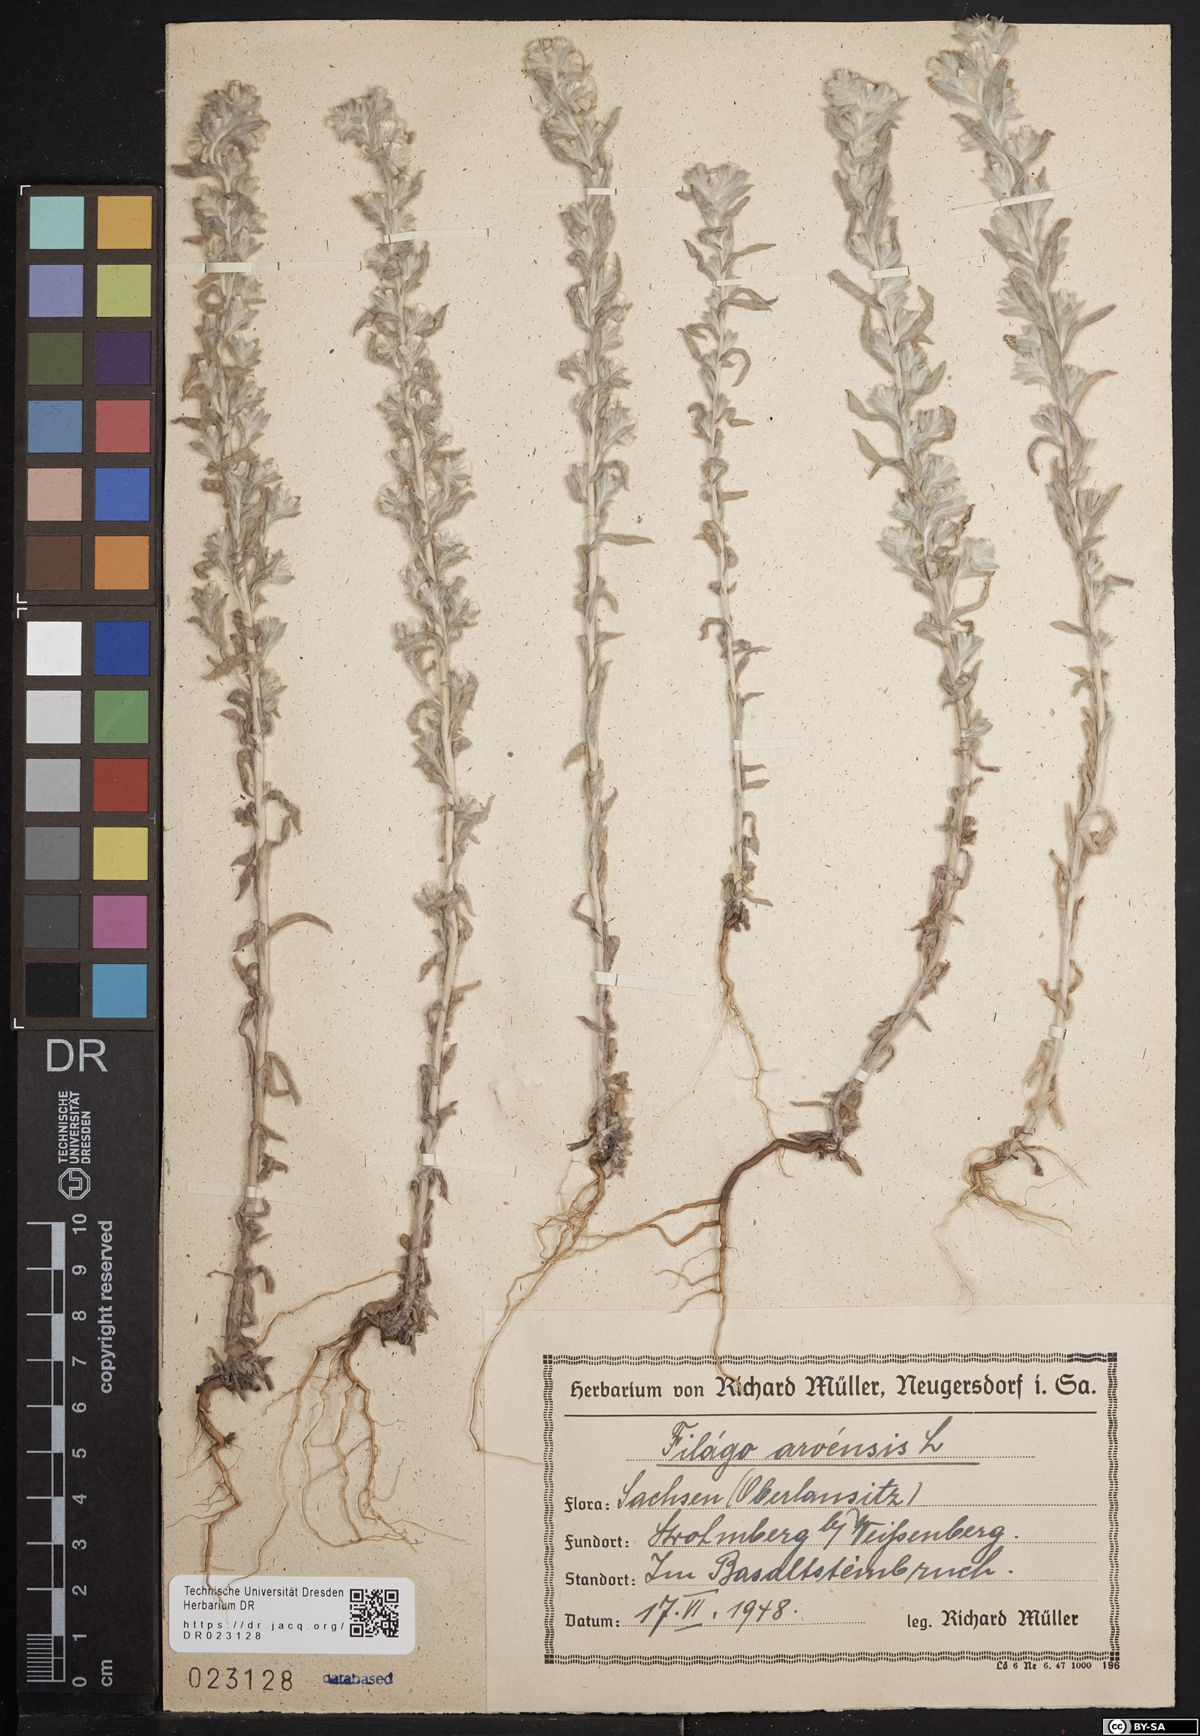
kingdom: Plantae
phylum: Tracheophyta
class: Magnoliopsida
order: Asterales
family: Asteraceae
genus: Filago
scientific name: Filago arvensis
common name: Field cudweed
